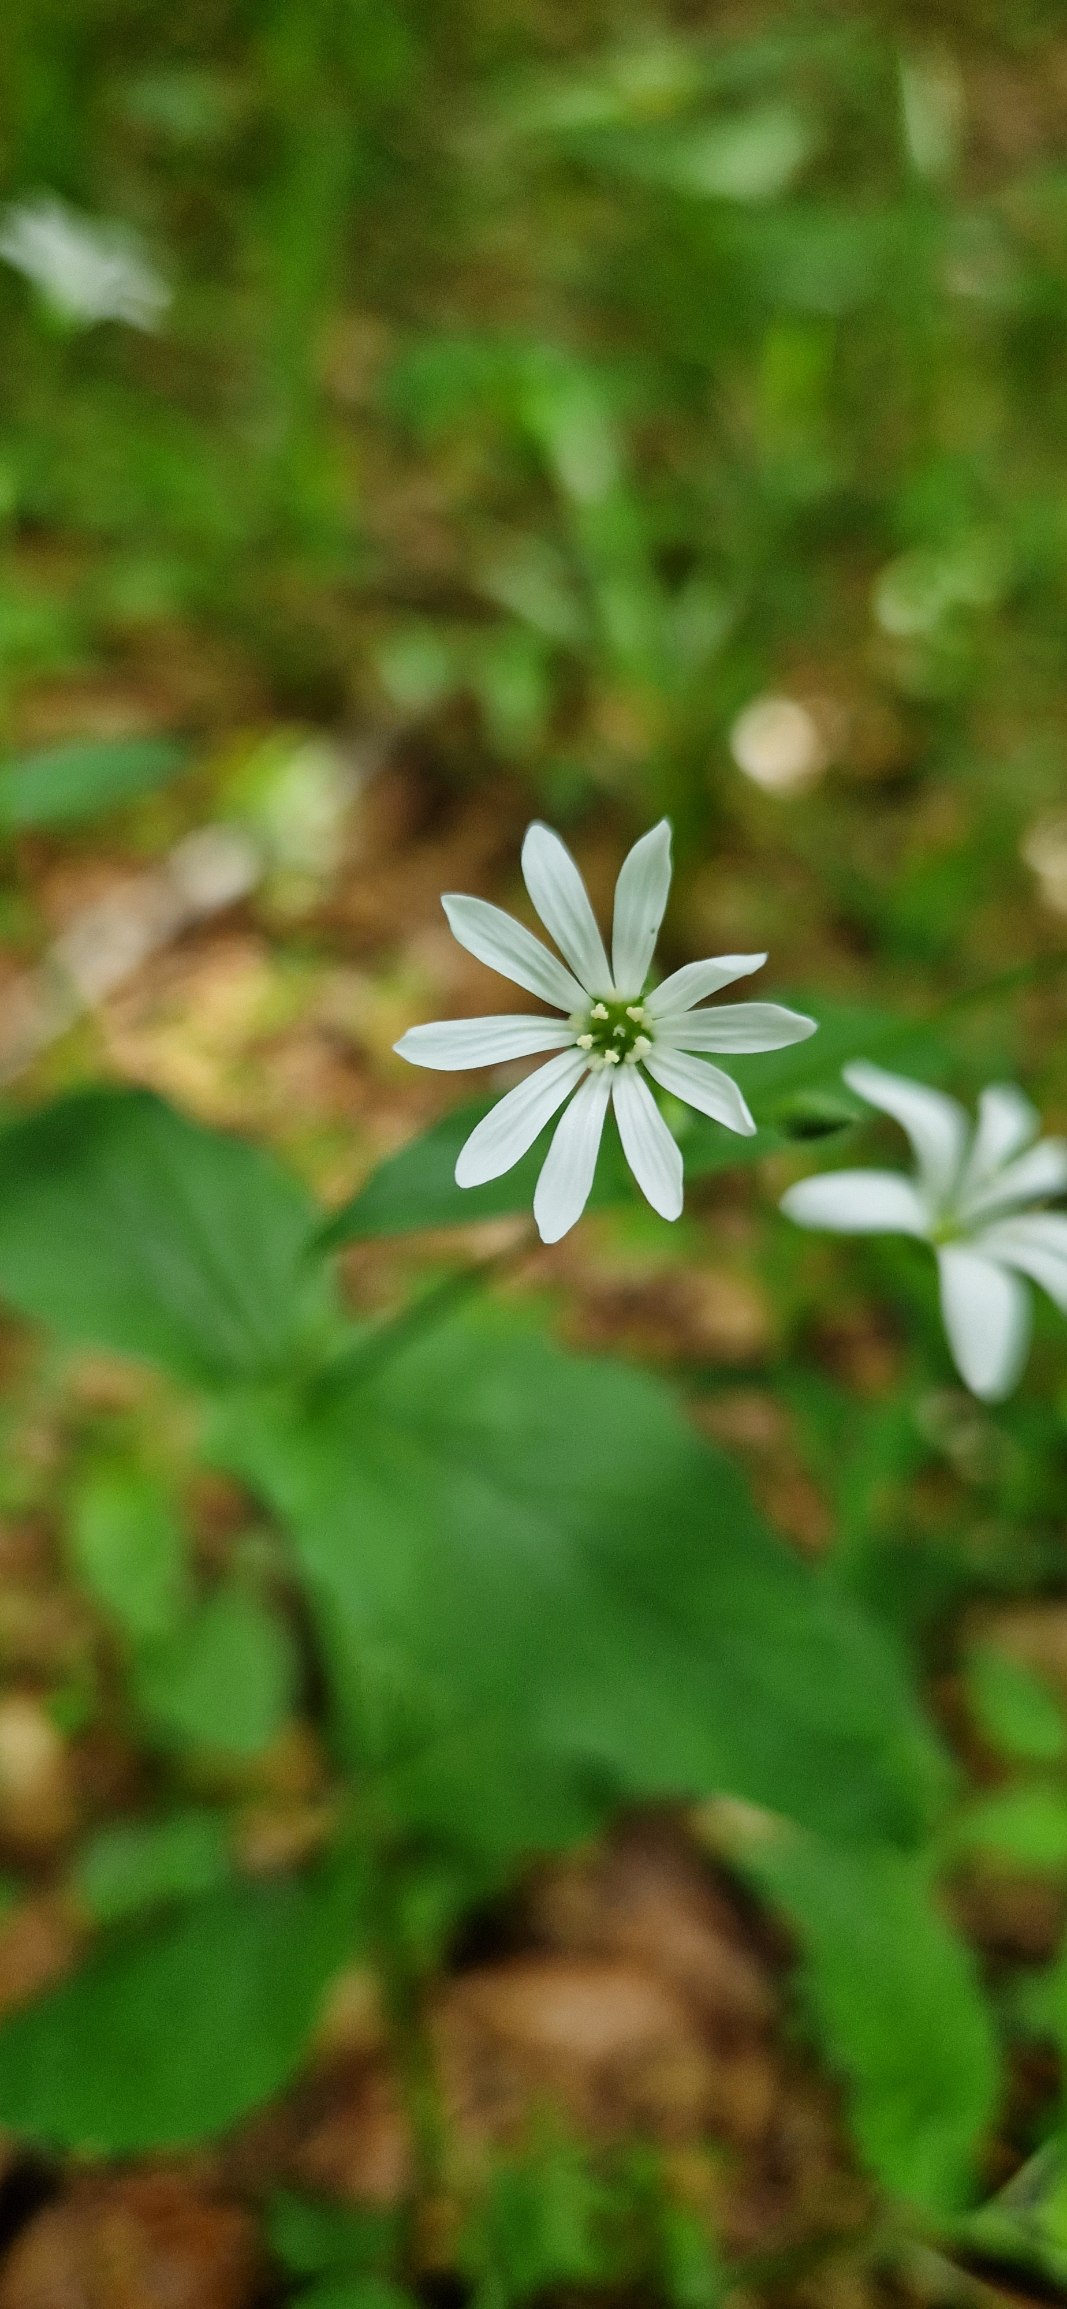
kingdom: Plantae
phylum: Tracheophyta
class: Magnoliopsida
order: Caryophyllales
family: Caryophyllaceae
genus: Stellaria
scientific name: Stellaria nemorum
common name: Nordlig lund-fladstjerne
